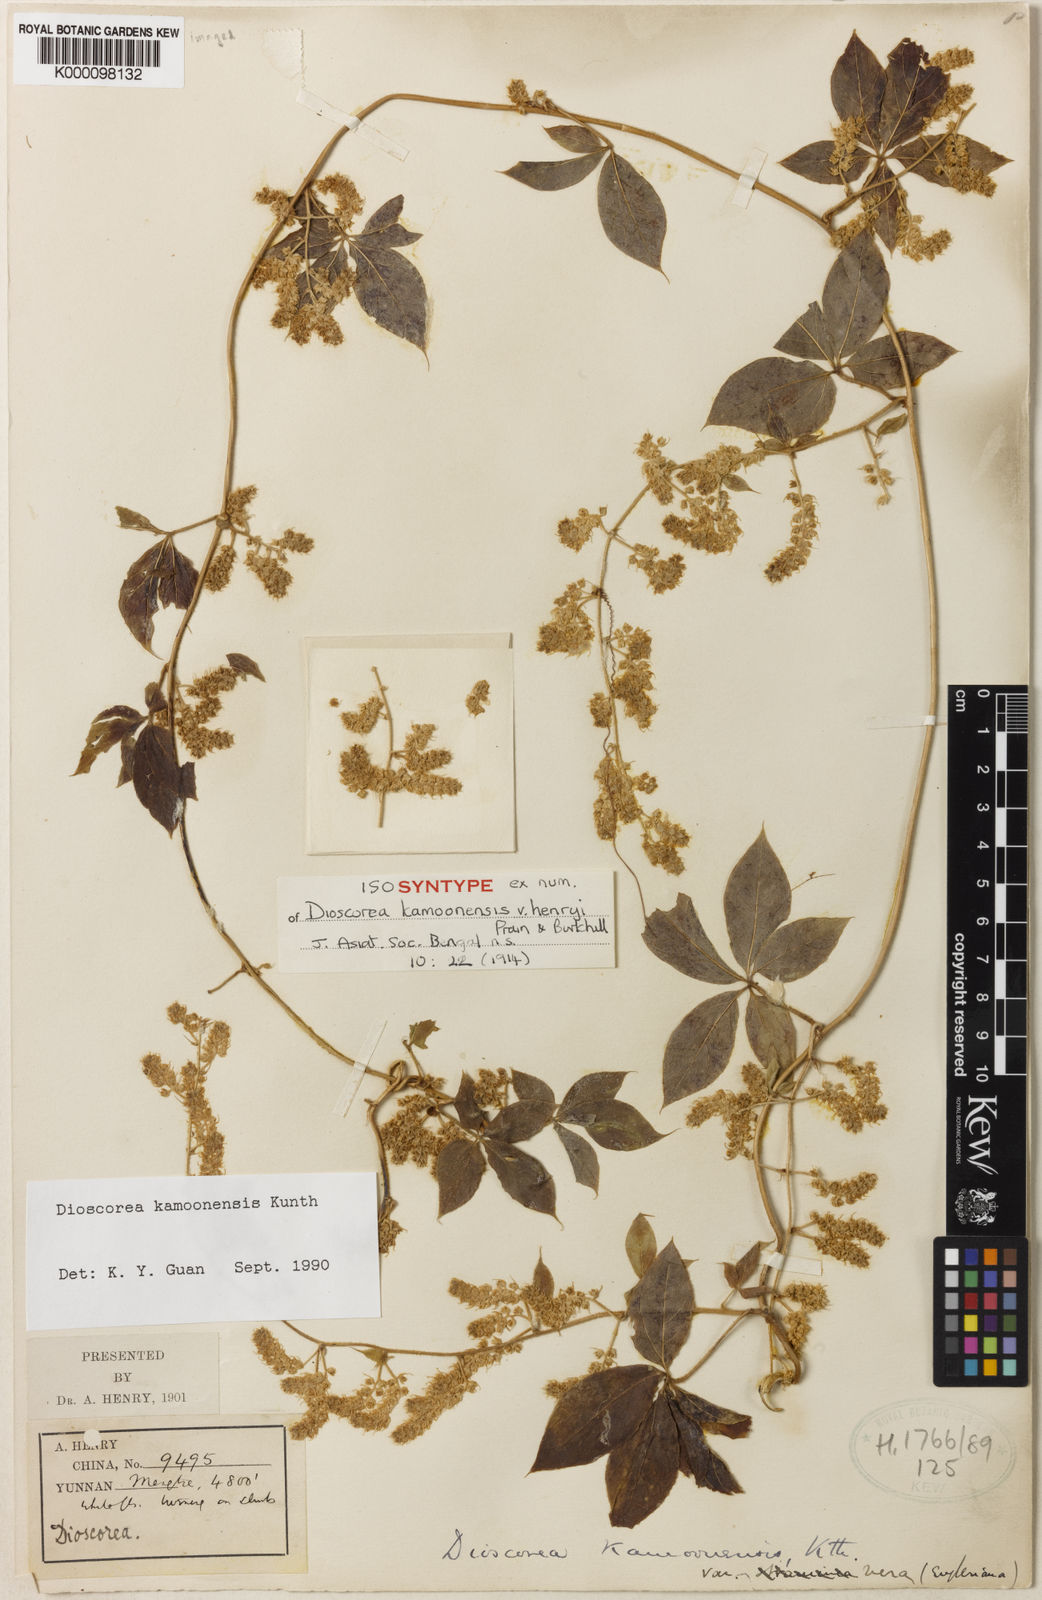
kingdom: Plantae
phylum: Tracheophyta
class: Liliopsida
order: Dioscoreales
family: Dioscoreaceae
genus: Dioscorea
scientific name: Dioscorea kamoonensis
